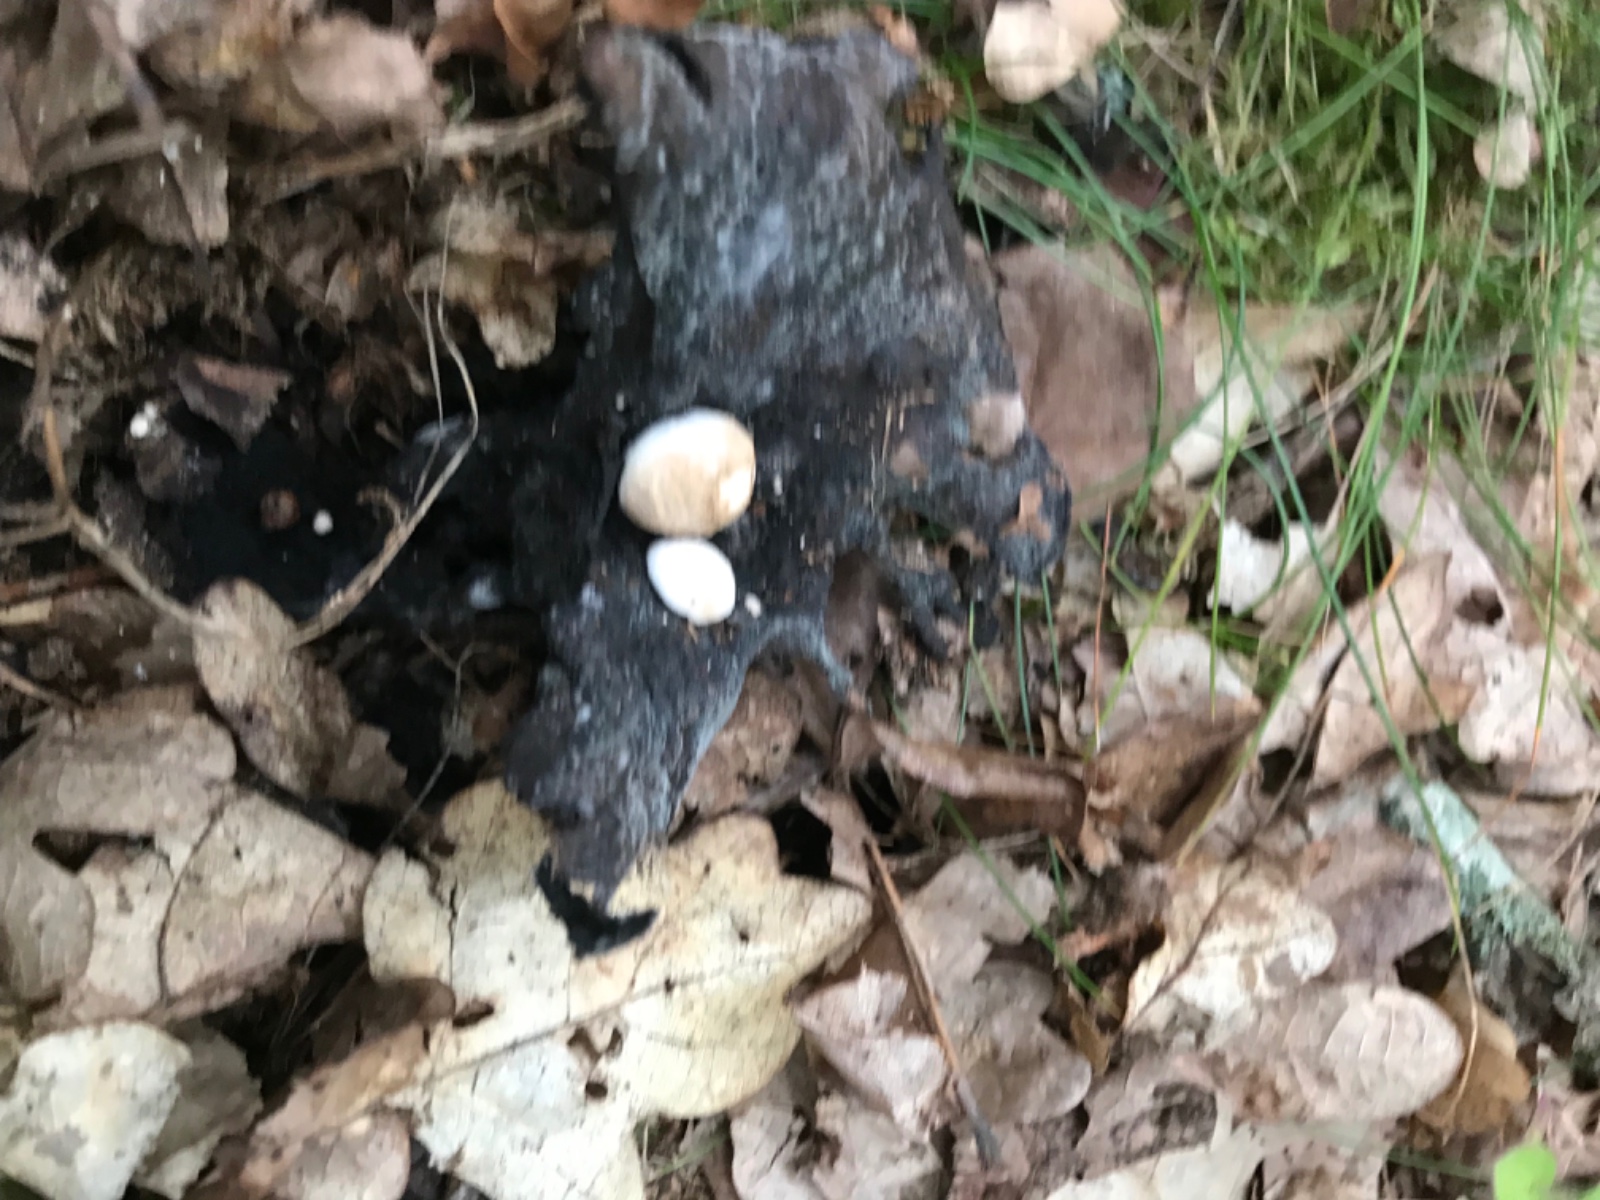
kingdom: Fungi
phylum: Basidiomycota
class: Agaricomycetes
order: Agaricales
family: Lyophyllaceae
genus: Asterophora
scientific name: Asterophora lycoperdoides
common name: brunpudret snyltehat
